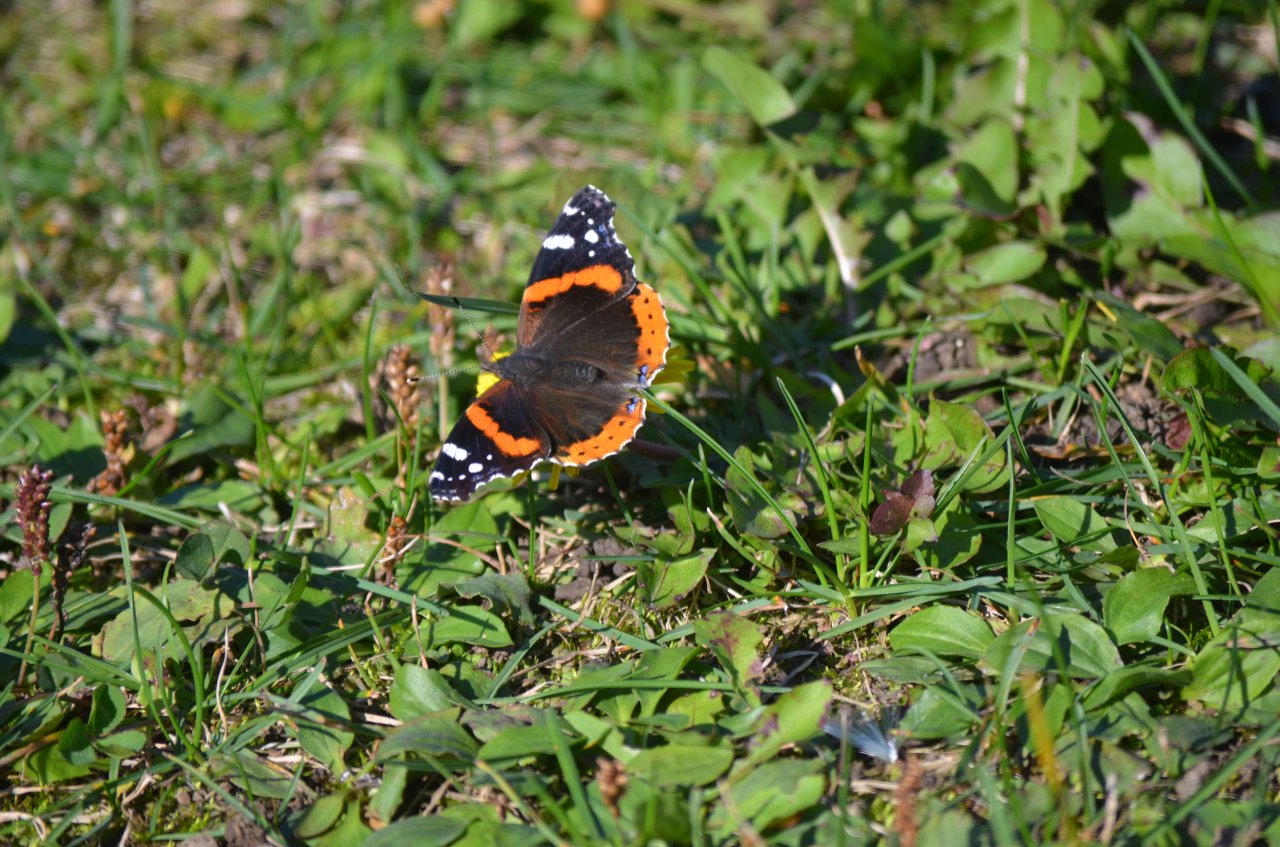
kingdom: Animalia
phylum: Arthropoda
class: Insecta
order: Lepidoptera
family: Nymphalidae
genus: Vanessa
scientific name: Vanessa atalanta
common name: Red Admiral
